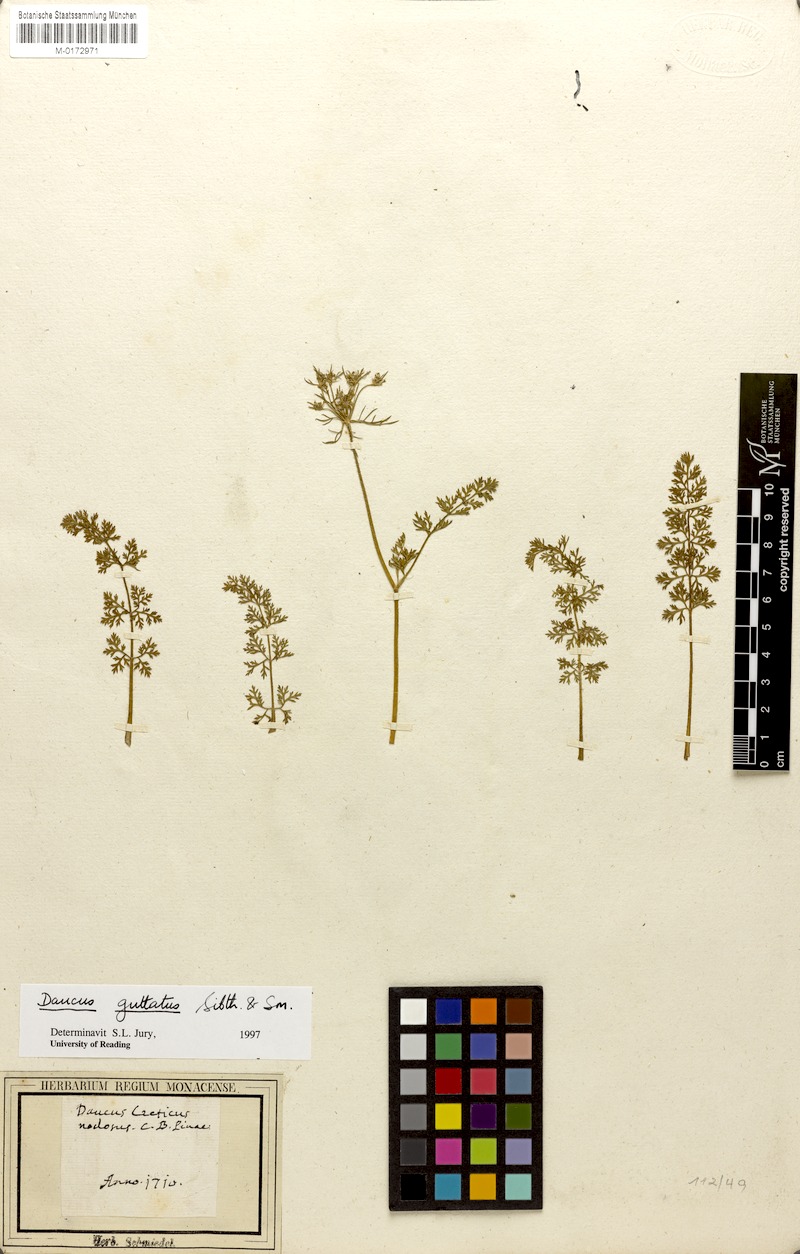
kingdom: Plantae
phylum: Tracheophyta
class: Magnoliopsida
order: Apiales
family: Apiaceae
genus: Daucus
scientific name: Daucus guttatus
